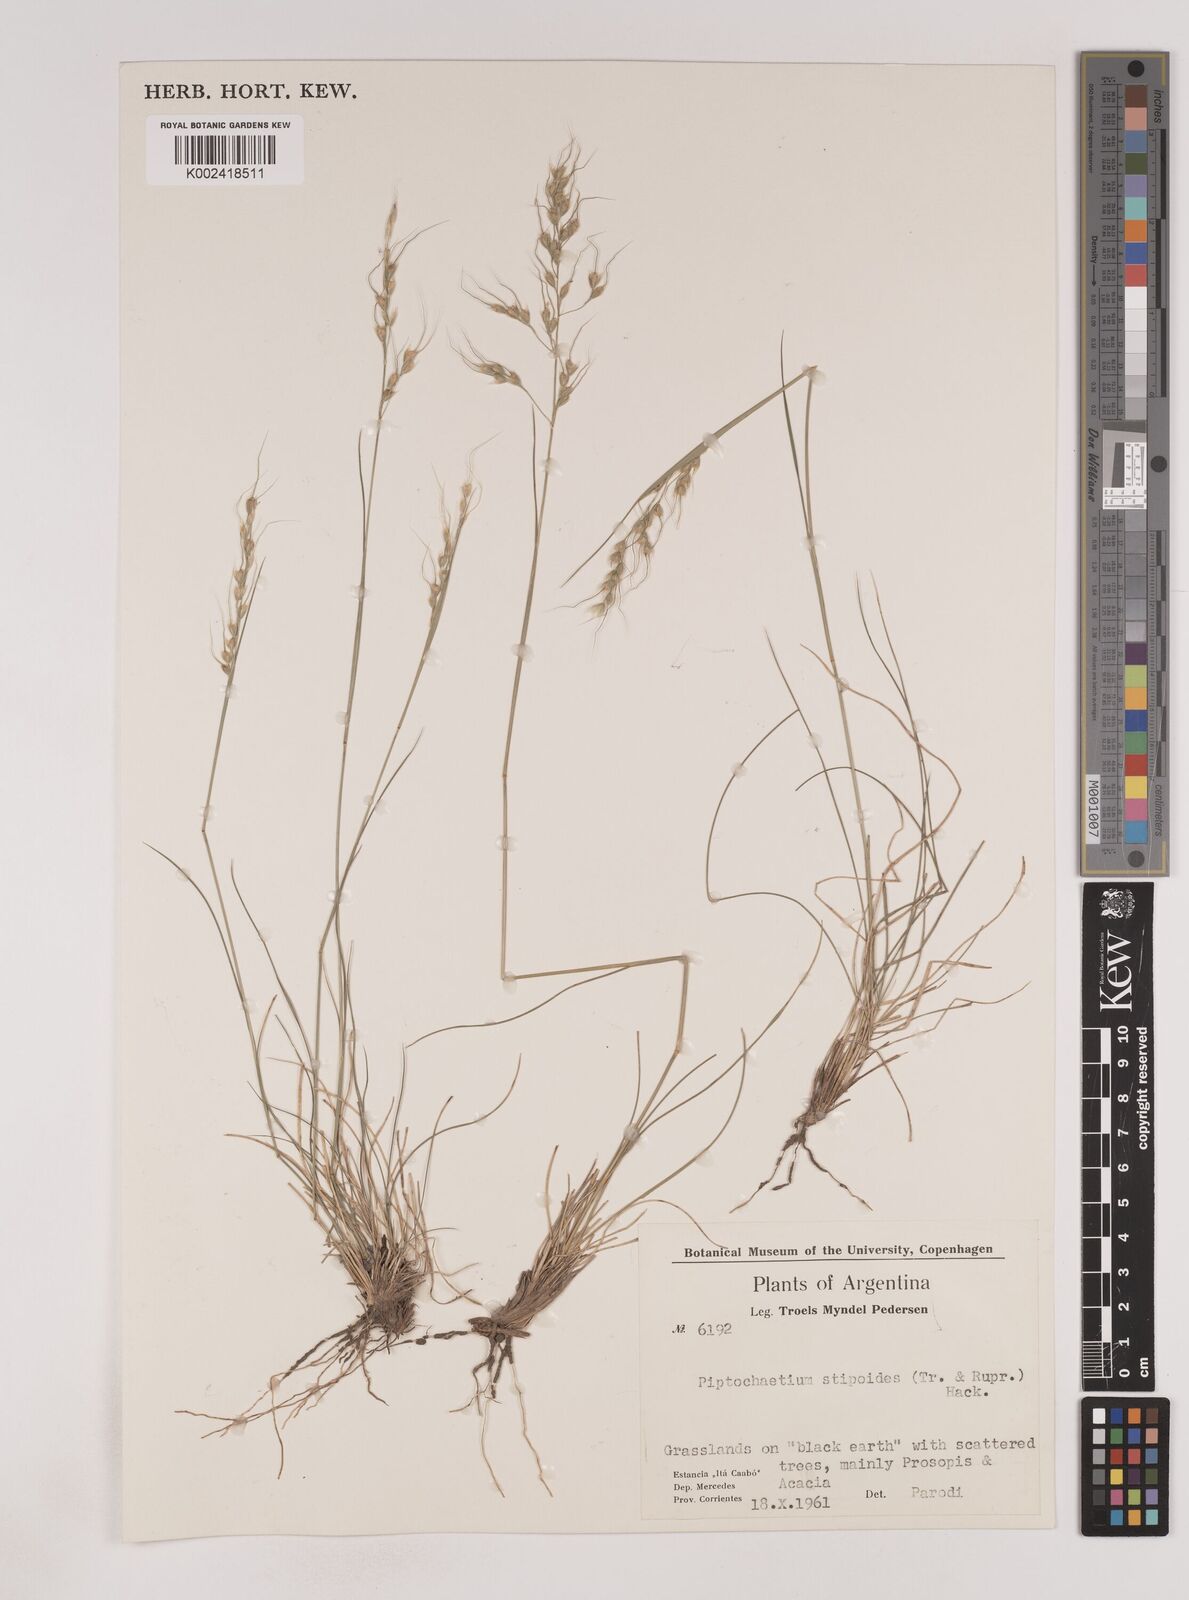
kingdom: Plantae
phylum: Tracheophyta
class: Liliopsida
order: Poales
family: Poaceae
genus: Piptochaetium
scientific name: Piptochaetium stipoides
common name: Purple speargrass
